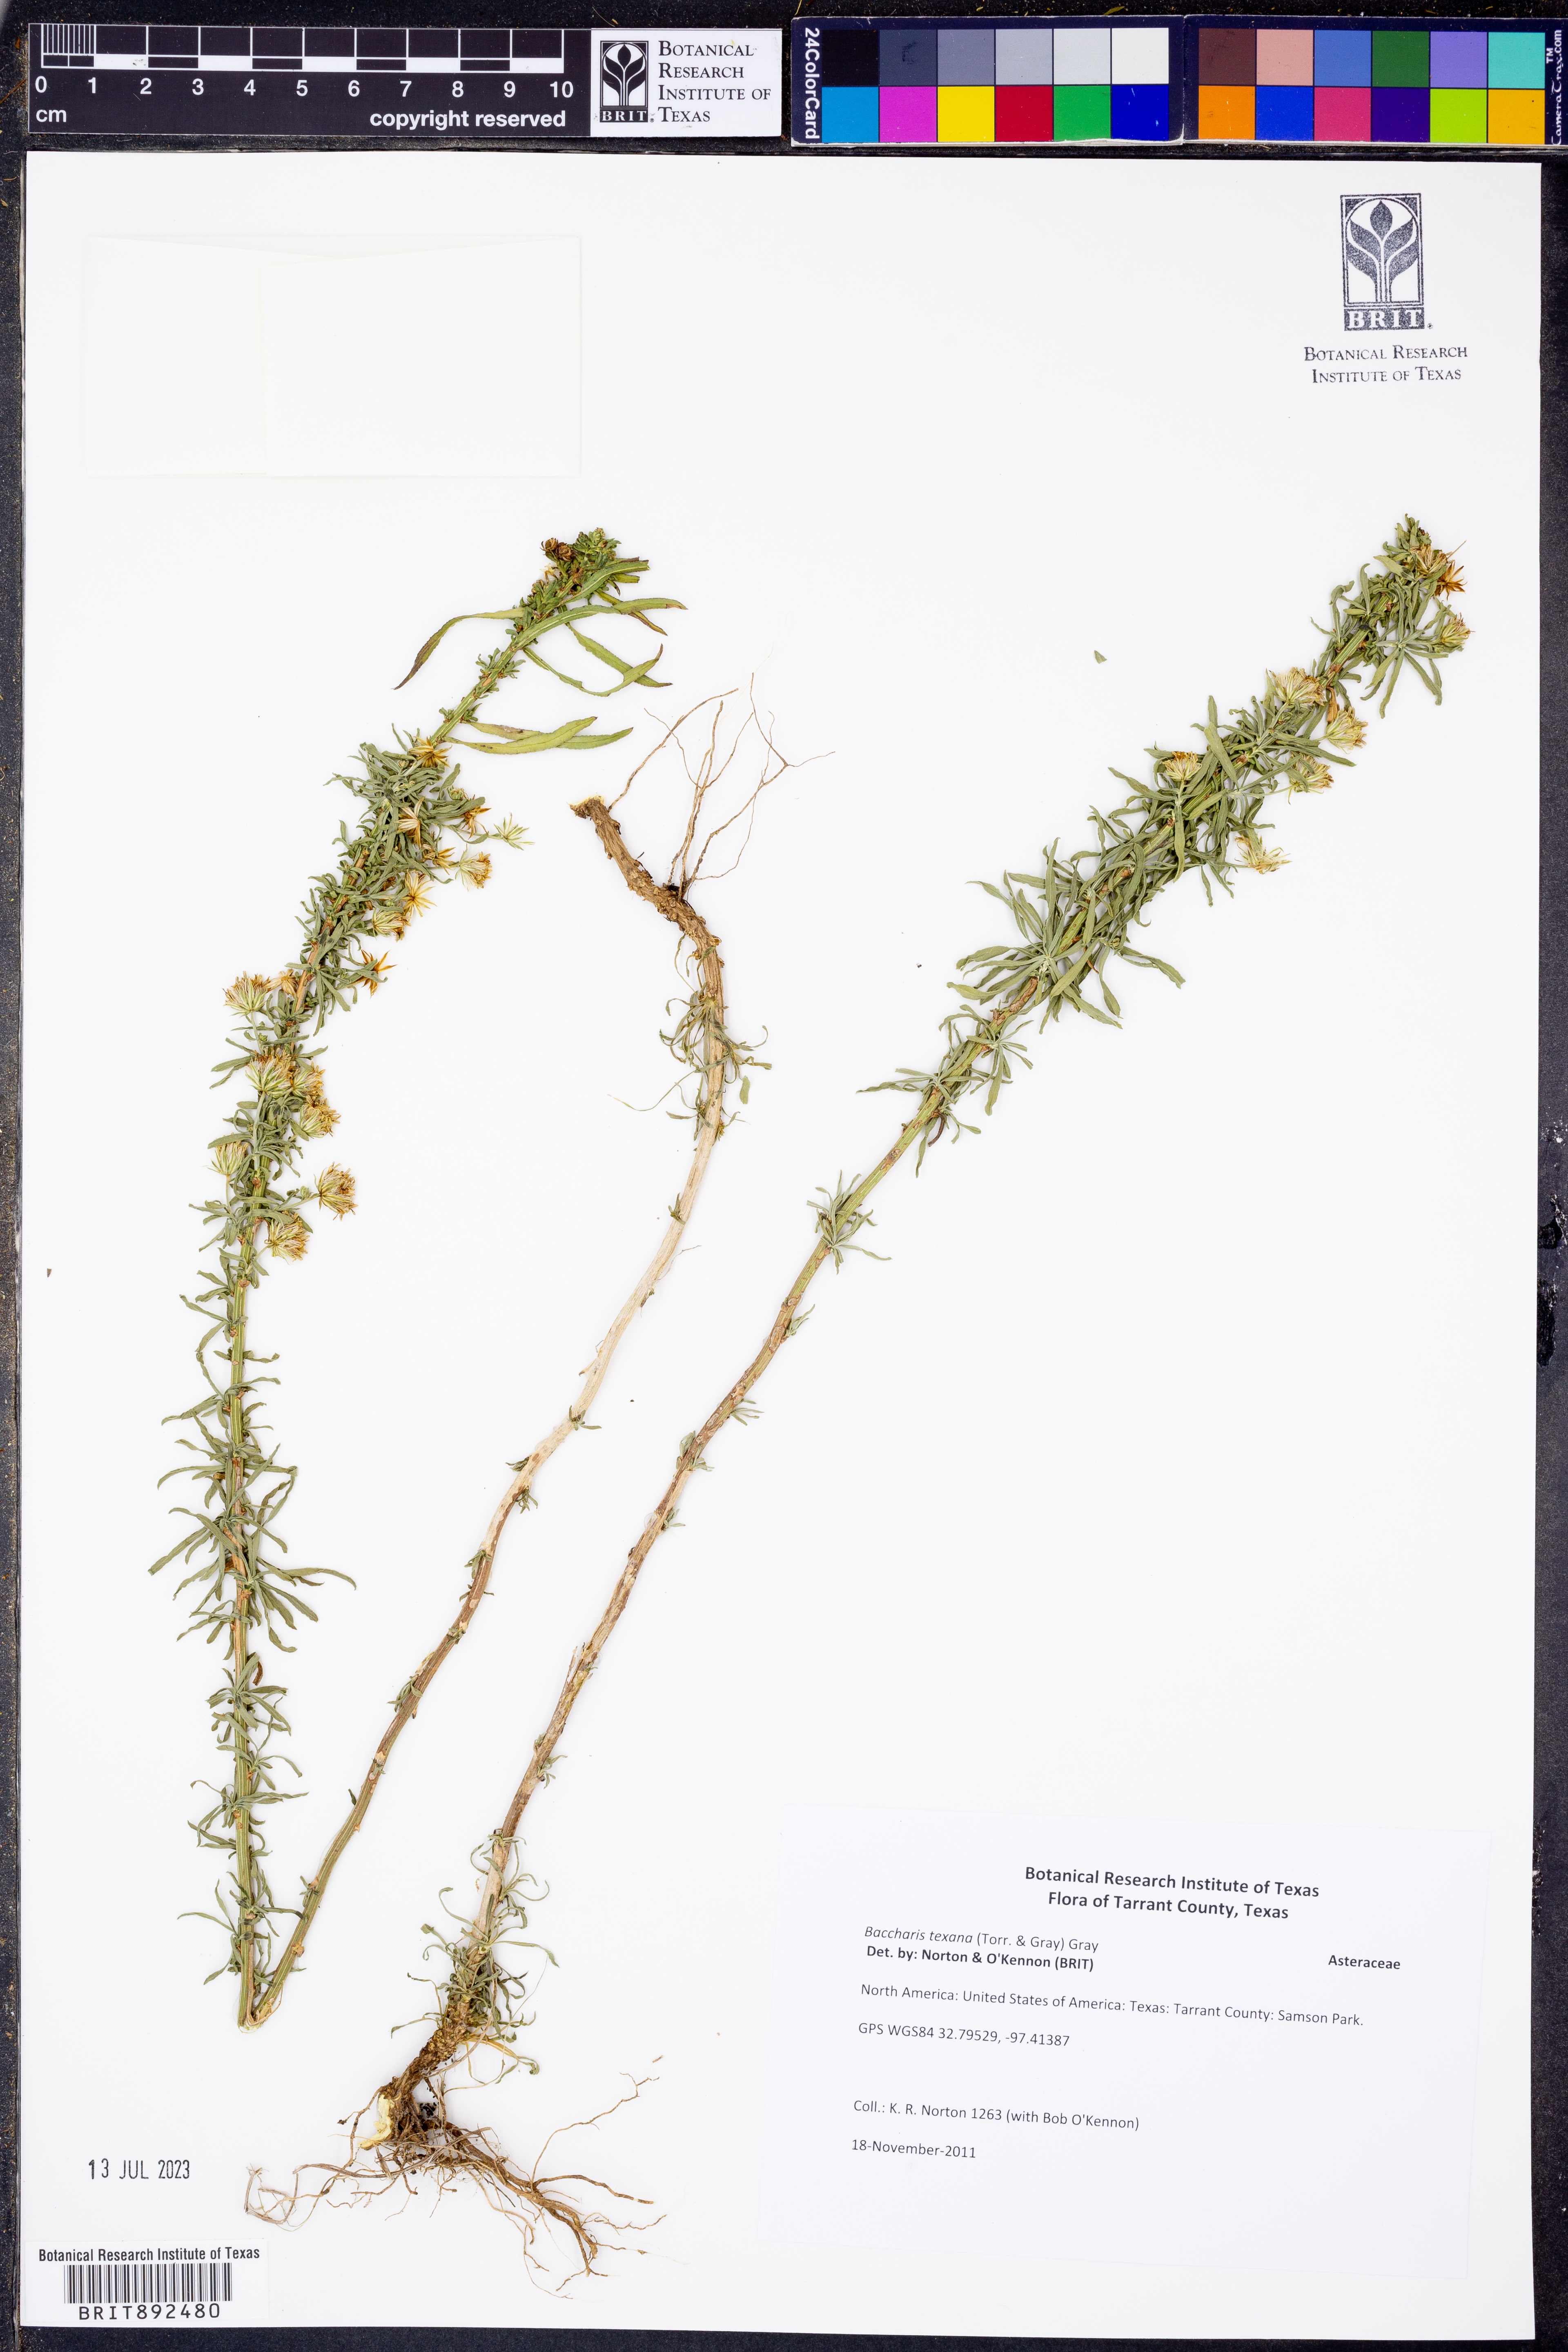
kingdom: Plantae
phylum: Tracheophyta
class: Magnoliopsida
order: Asterales
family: Asteraceae
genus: Baccharis
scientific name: Baccharis texana
